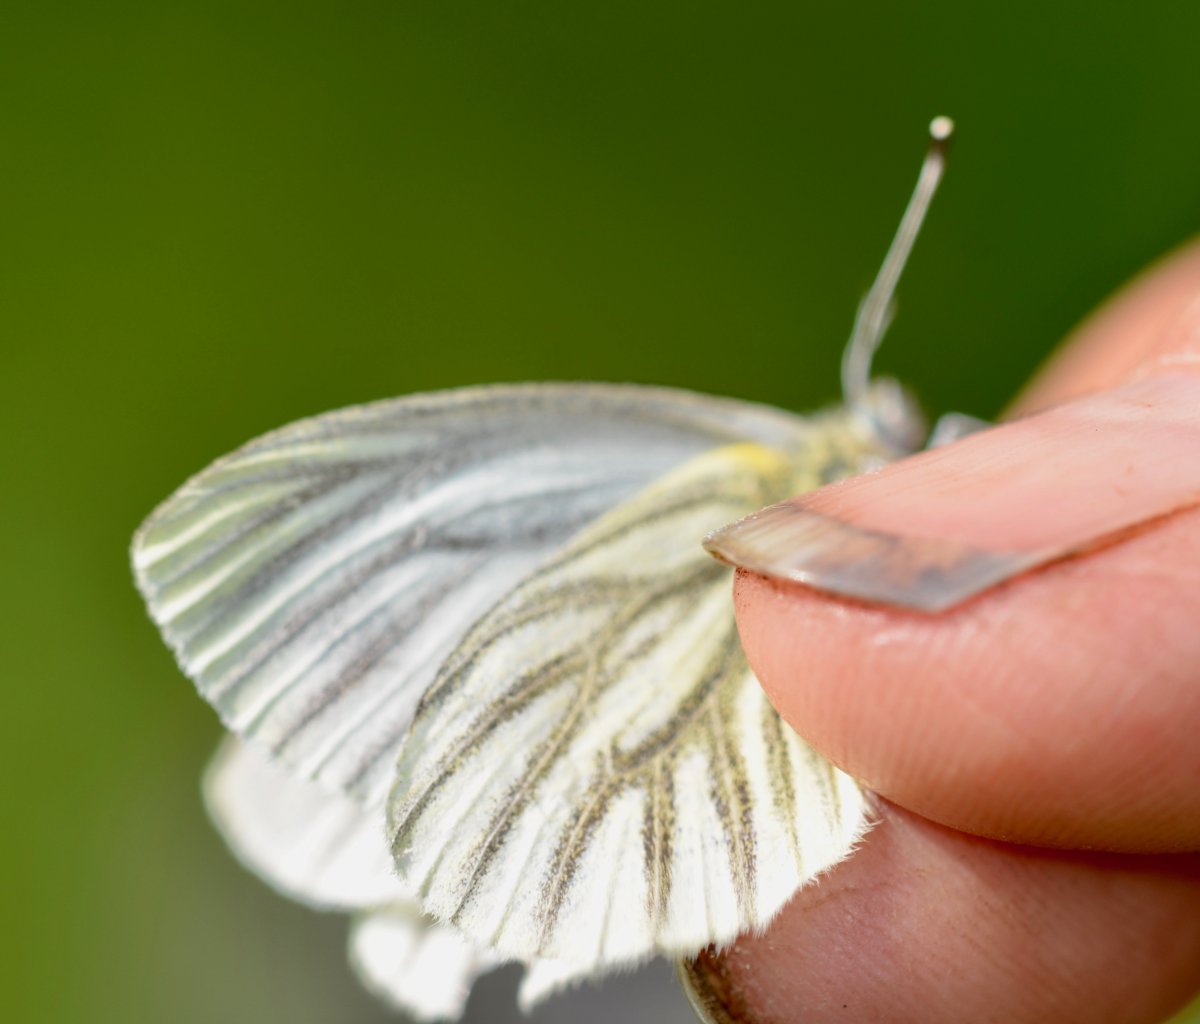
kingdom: Animalia
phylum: Arthropoda
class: Insecta
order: Lepidoptera
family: Pieridae
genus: Pieris
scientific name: Pieris angelika
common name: Arctic White
